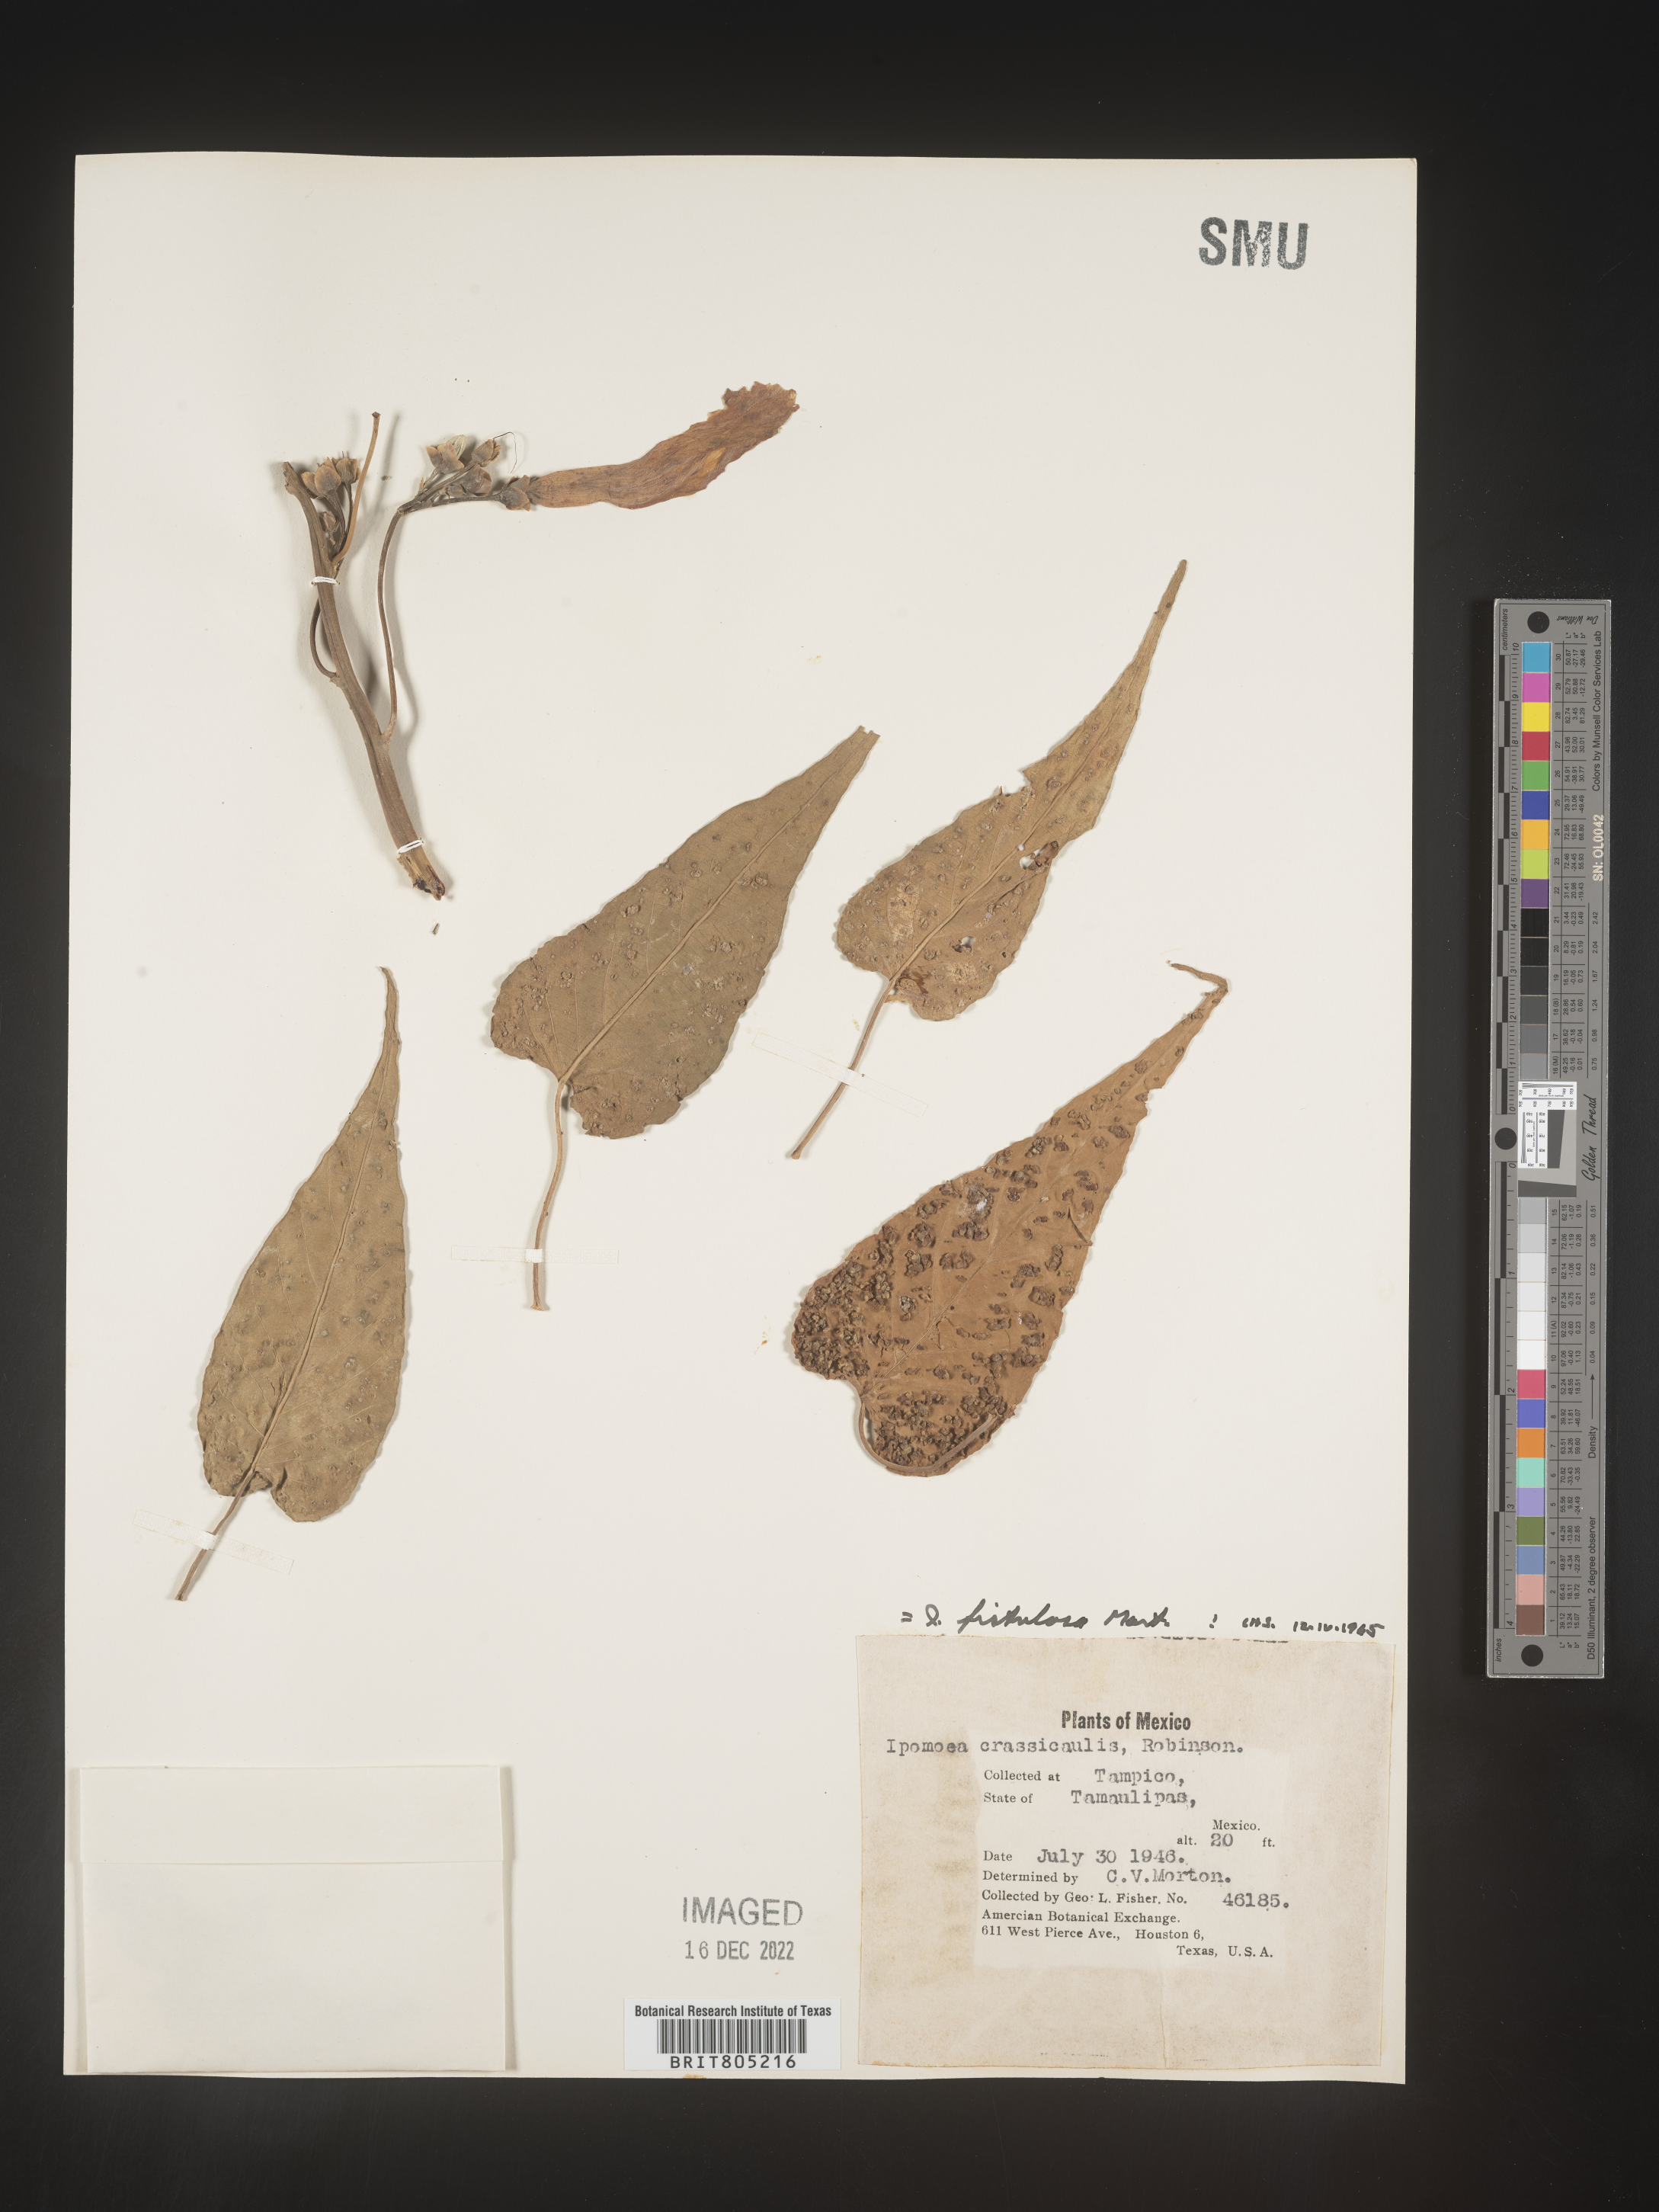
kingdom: Plantae
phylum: Tracheophyta
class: Magnoliopsida
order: Solanales
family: Convolvulaceae
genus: Ipomoea
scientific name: Ipomoea
